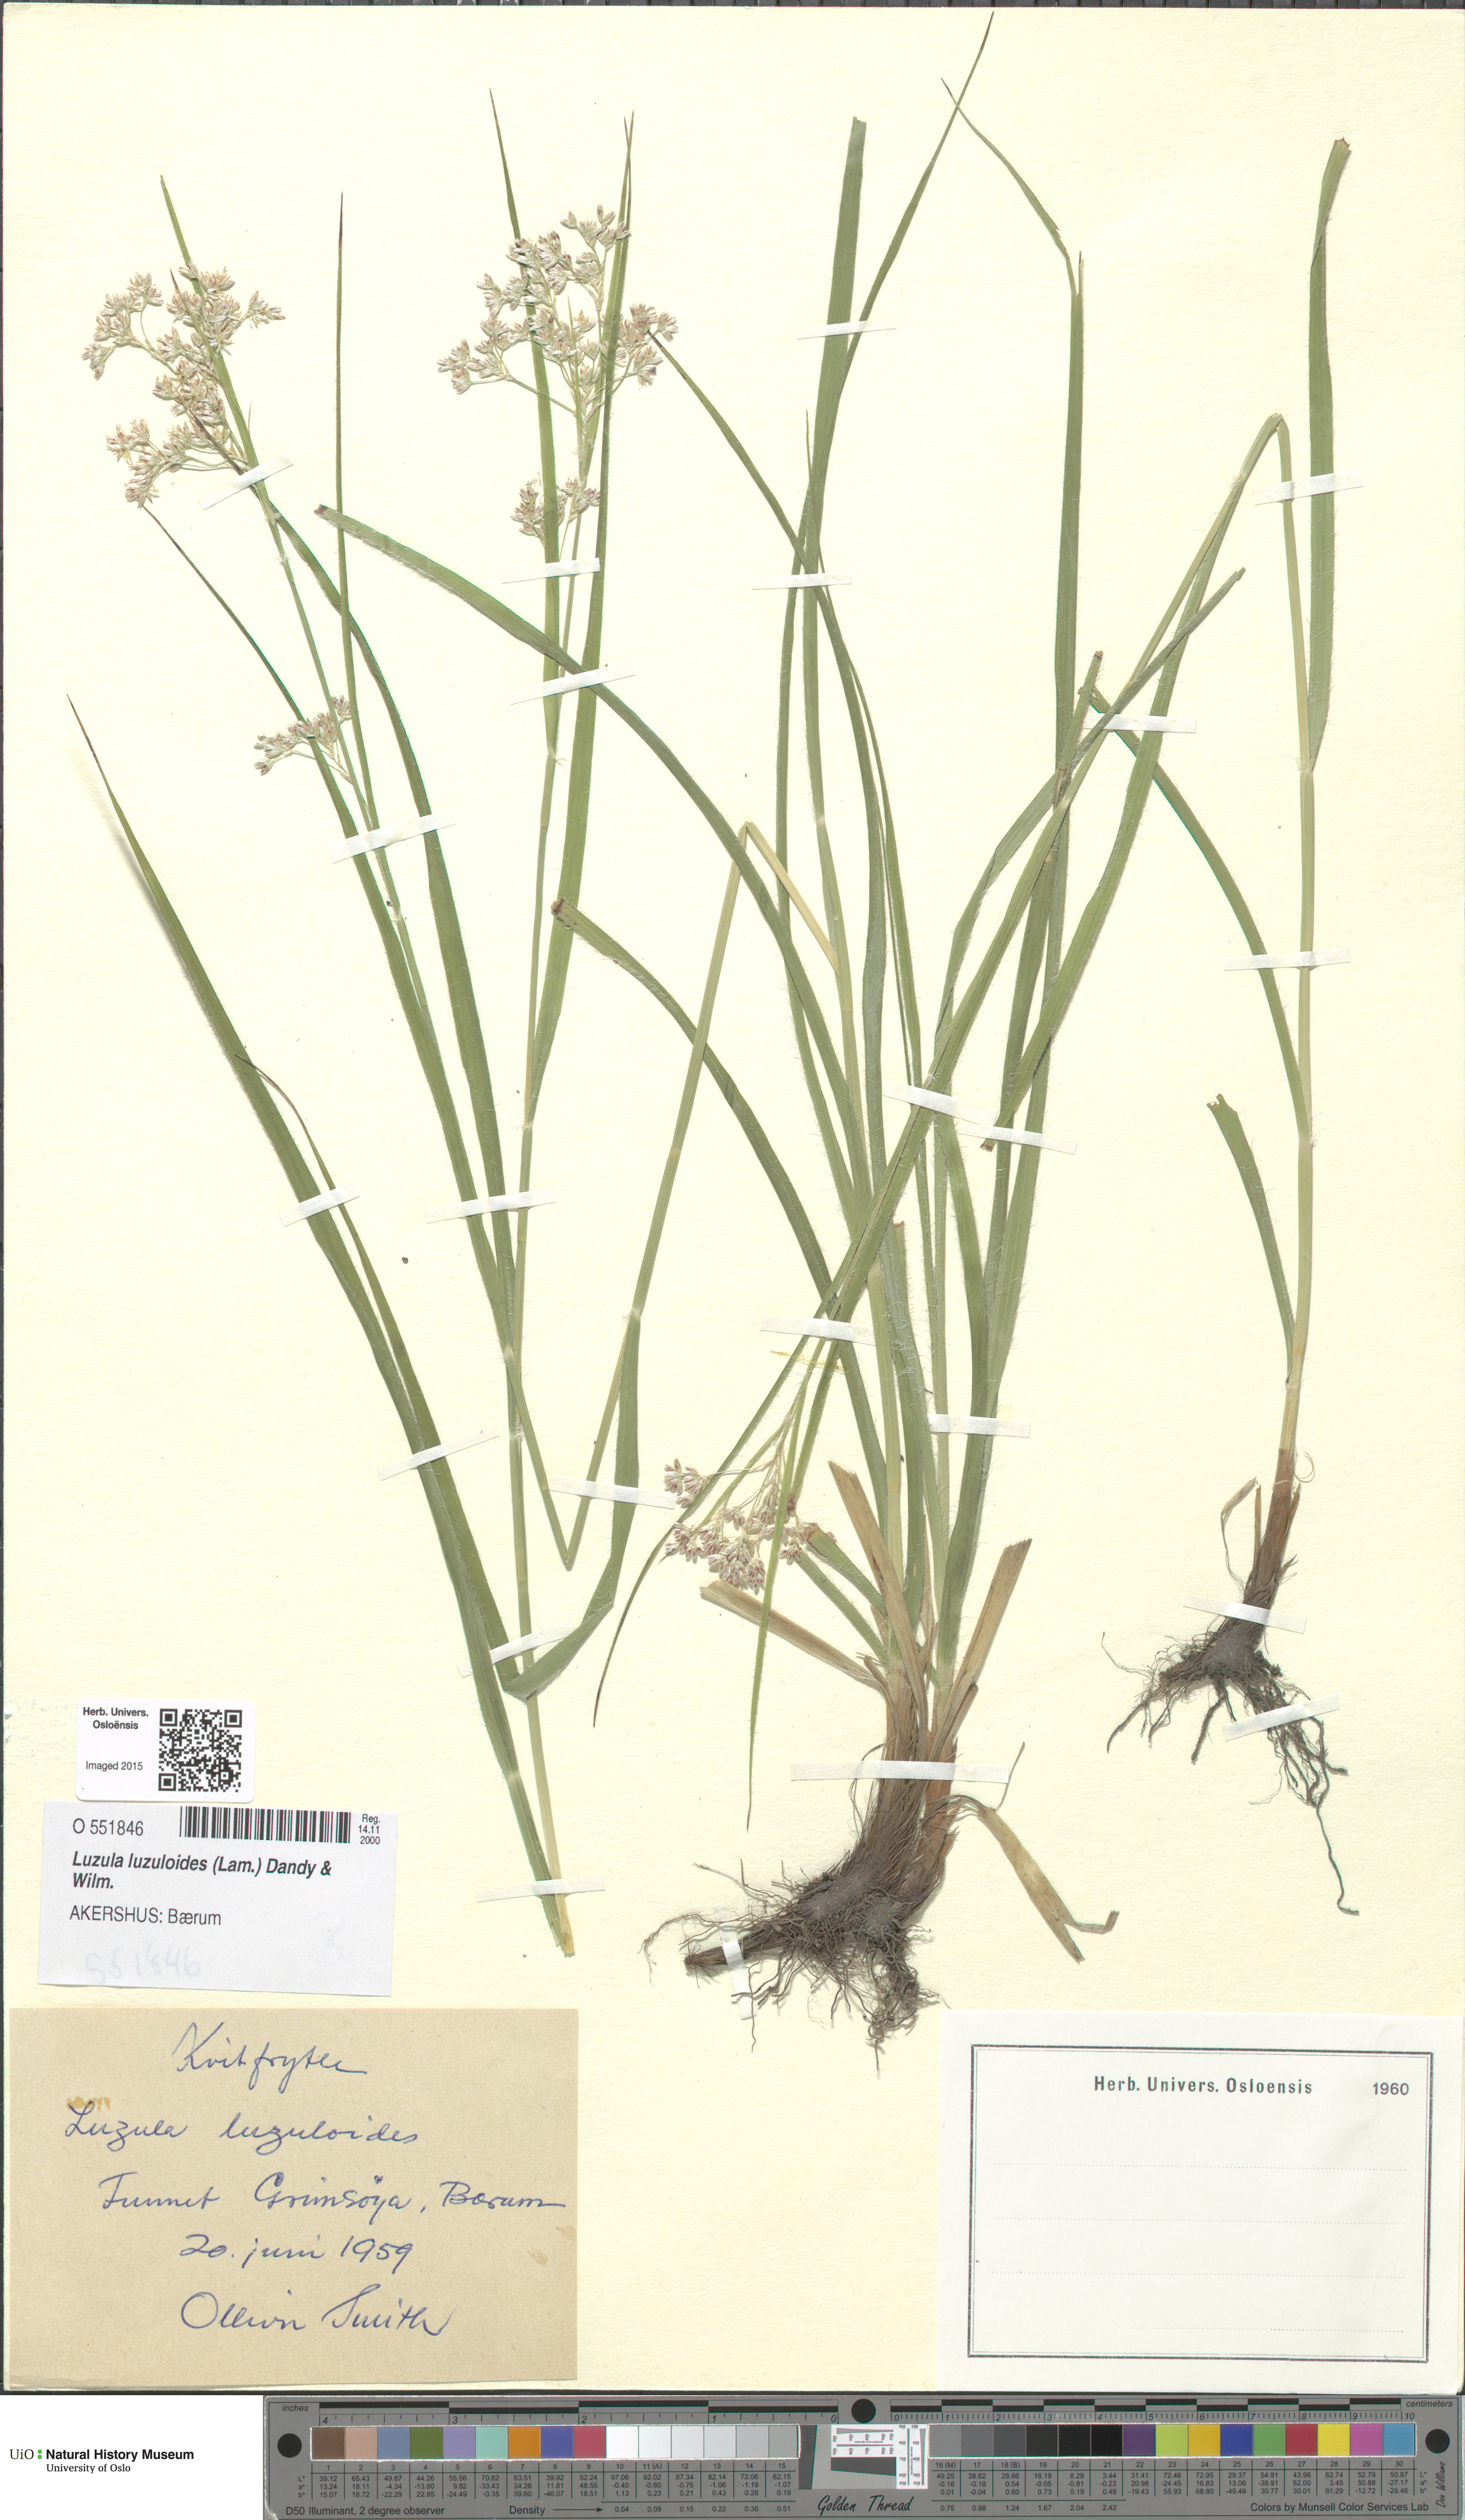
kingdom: Plantae
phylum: Tracheophyta
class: Liliopsida
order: Poales
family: Juncaceae
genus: Luzula
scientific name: Luzula luzuloides
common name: White wood-rush
